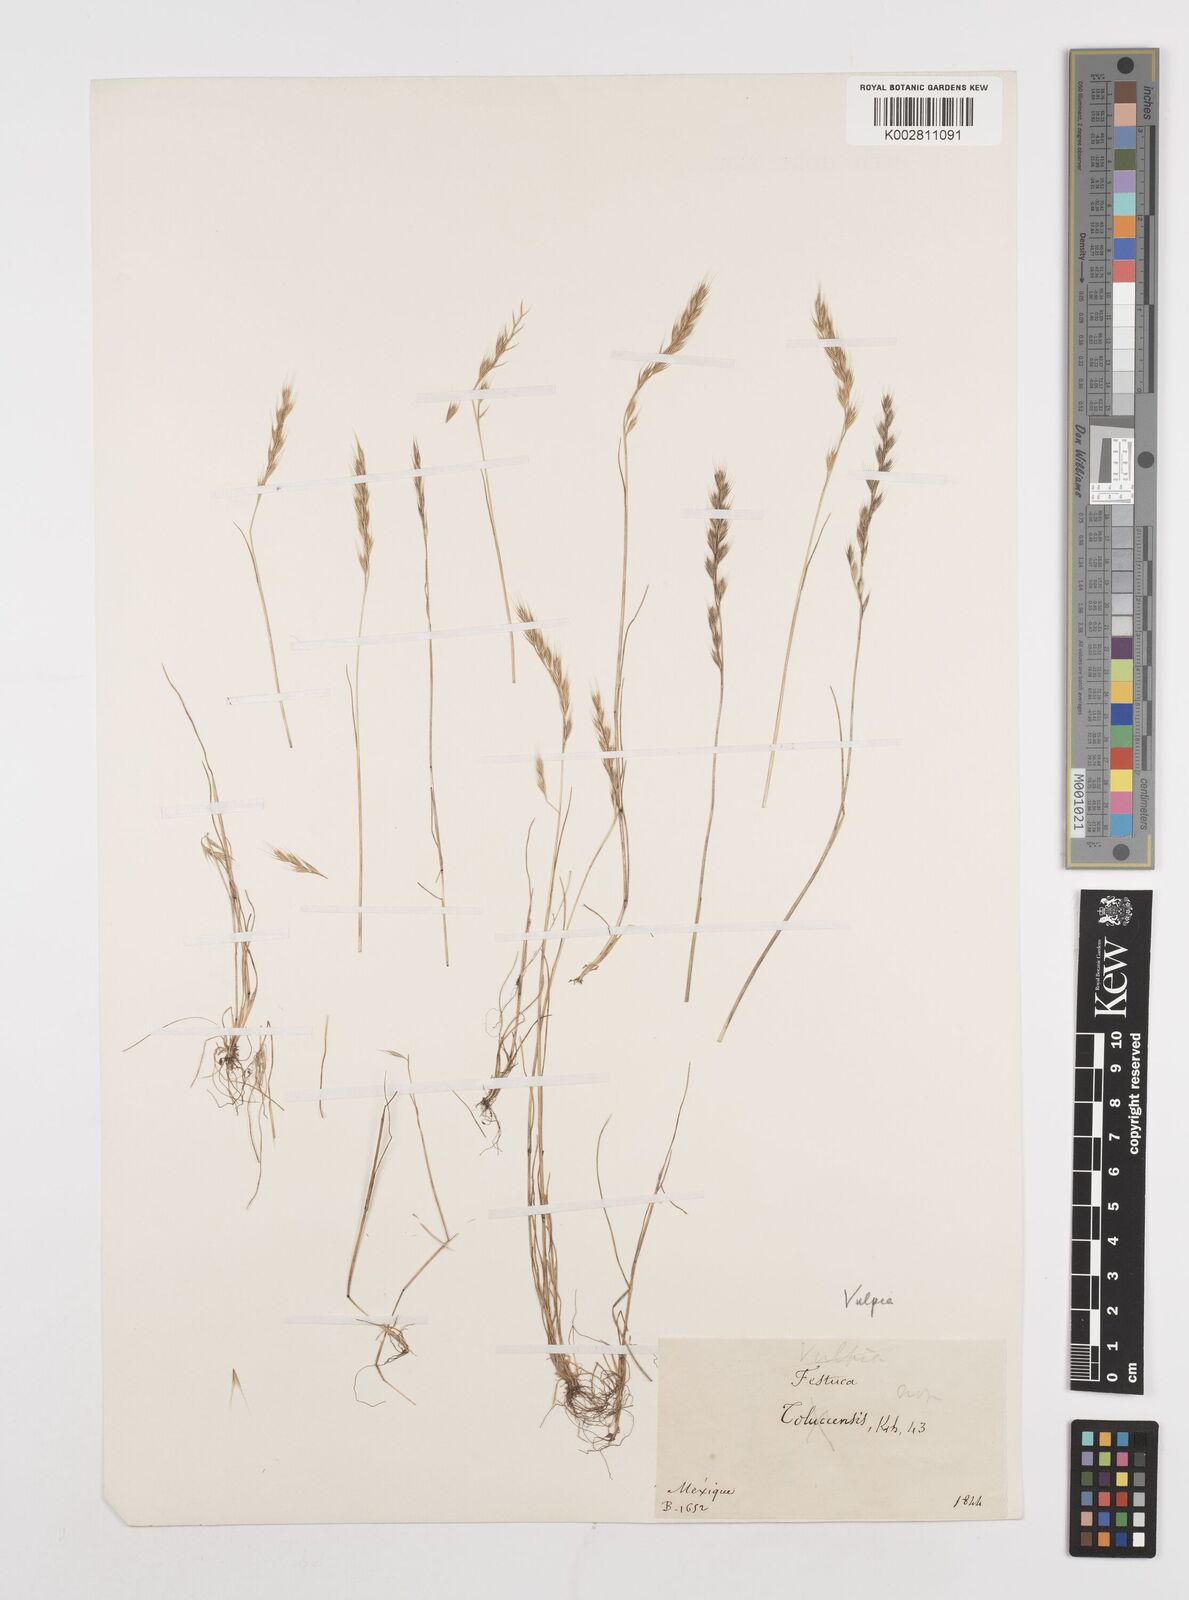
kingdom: Plantae
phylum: Tracheophyta
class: Liliopsida
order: Poales
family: Poaceae
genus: Festuca
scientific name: Festuca octoflora
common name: Sixweeks grass
